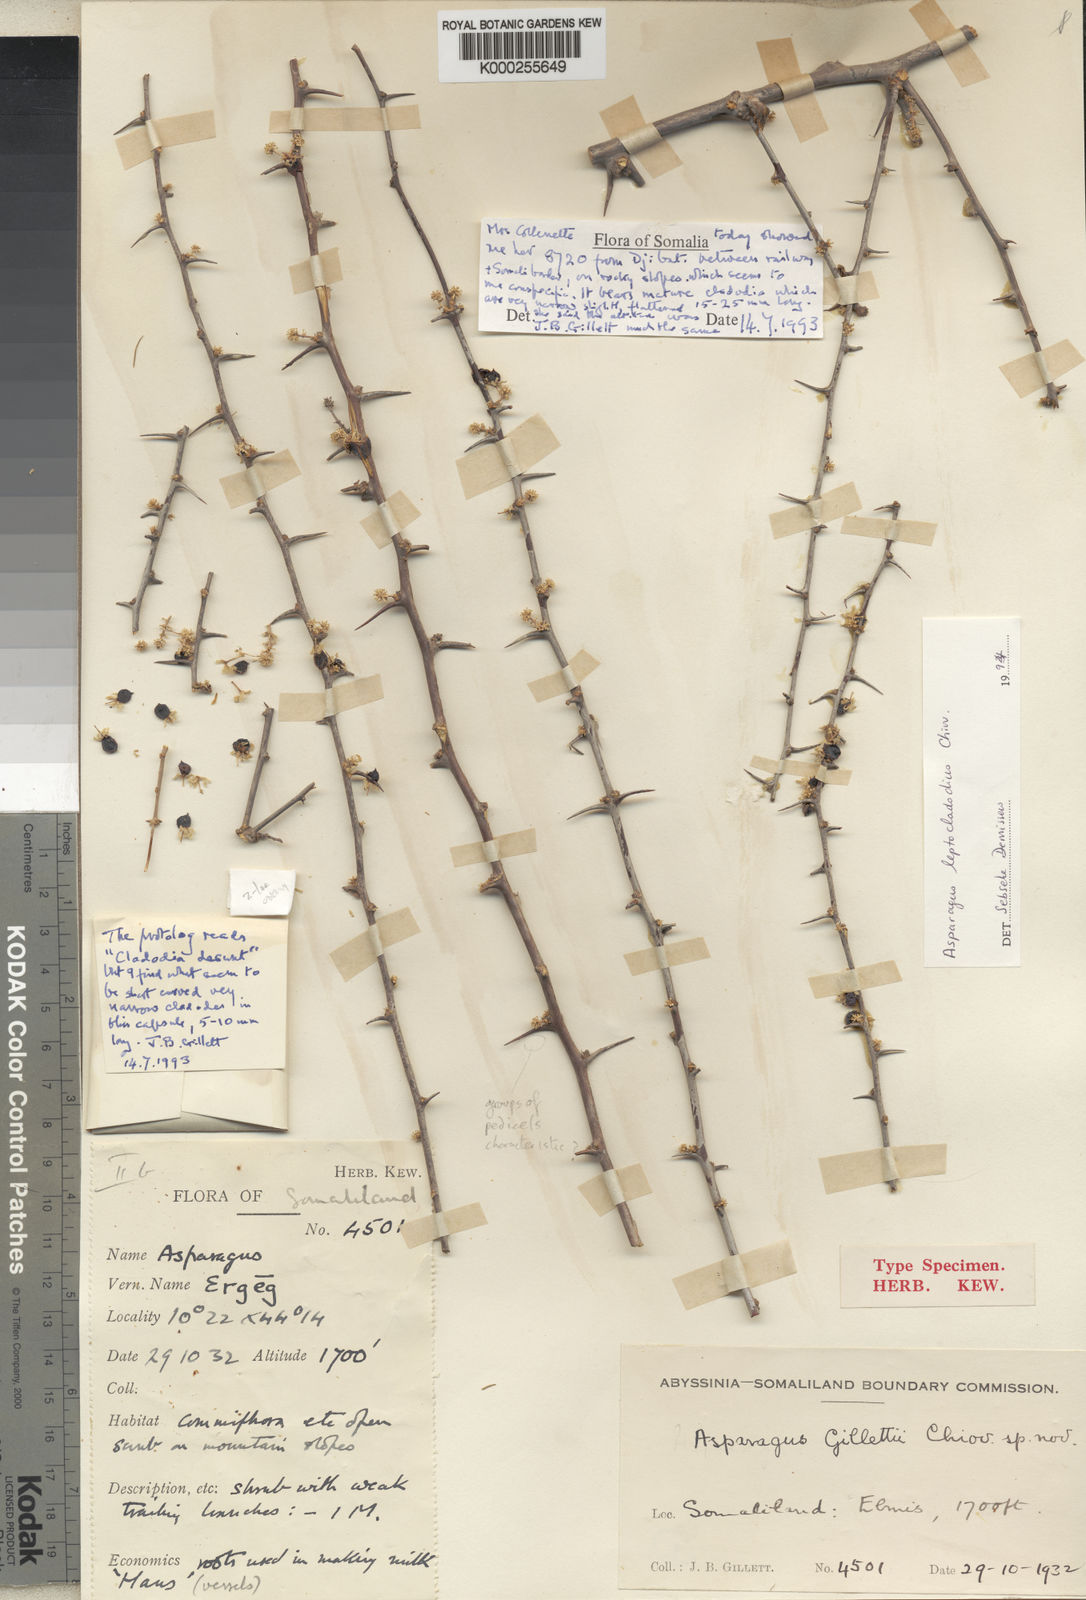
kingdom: Plantae
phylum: Tracheophyta
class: Liliopsida
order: Asparagales
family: Asparagaceae
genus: Asparagus
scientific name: Asparagus leptocladodius
